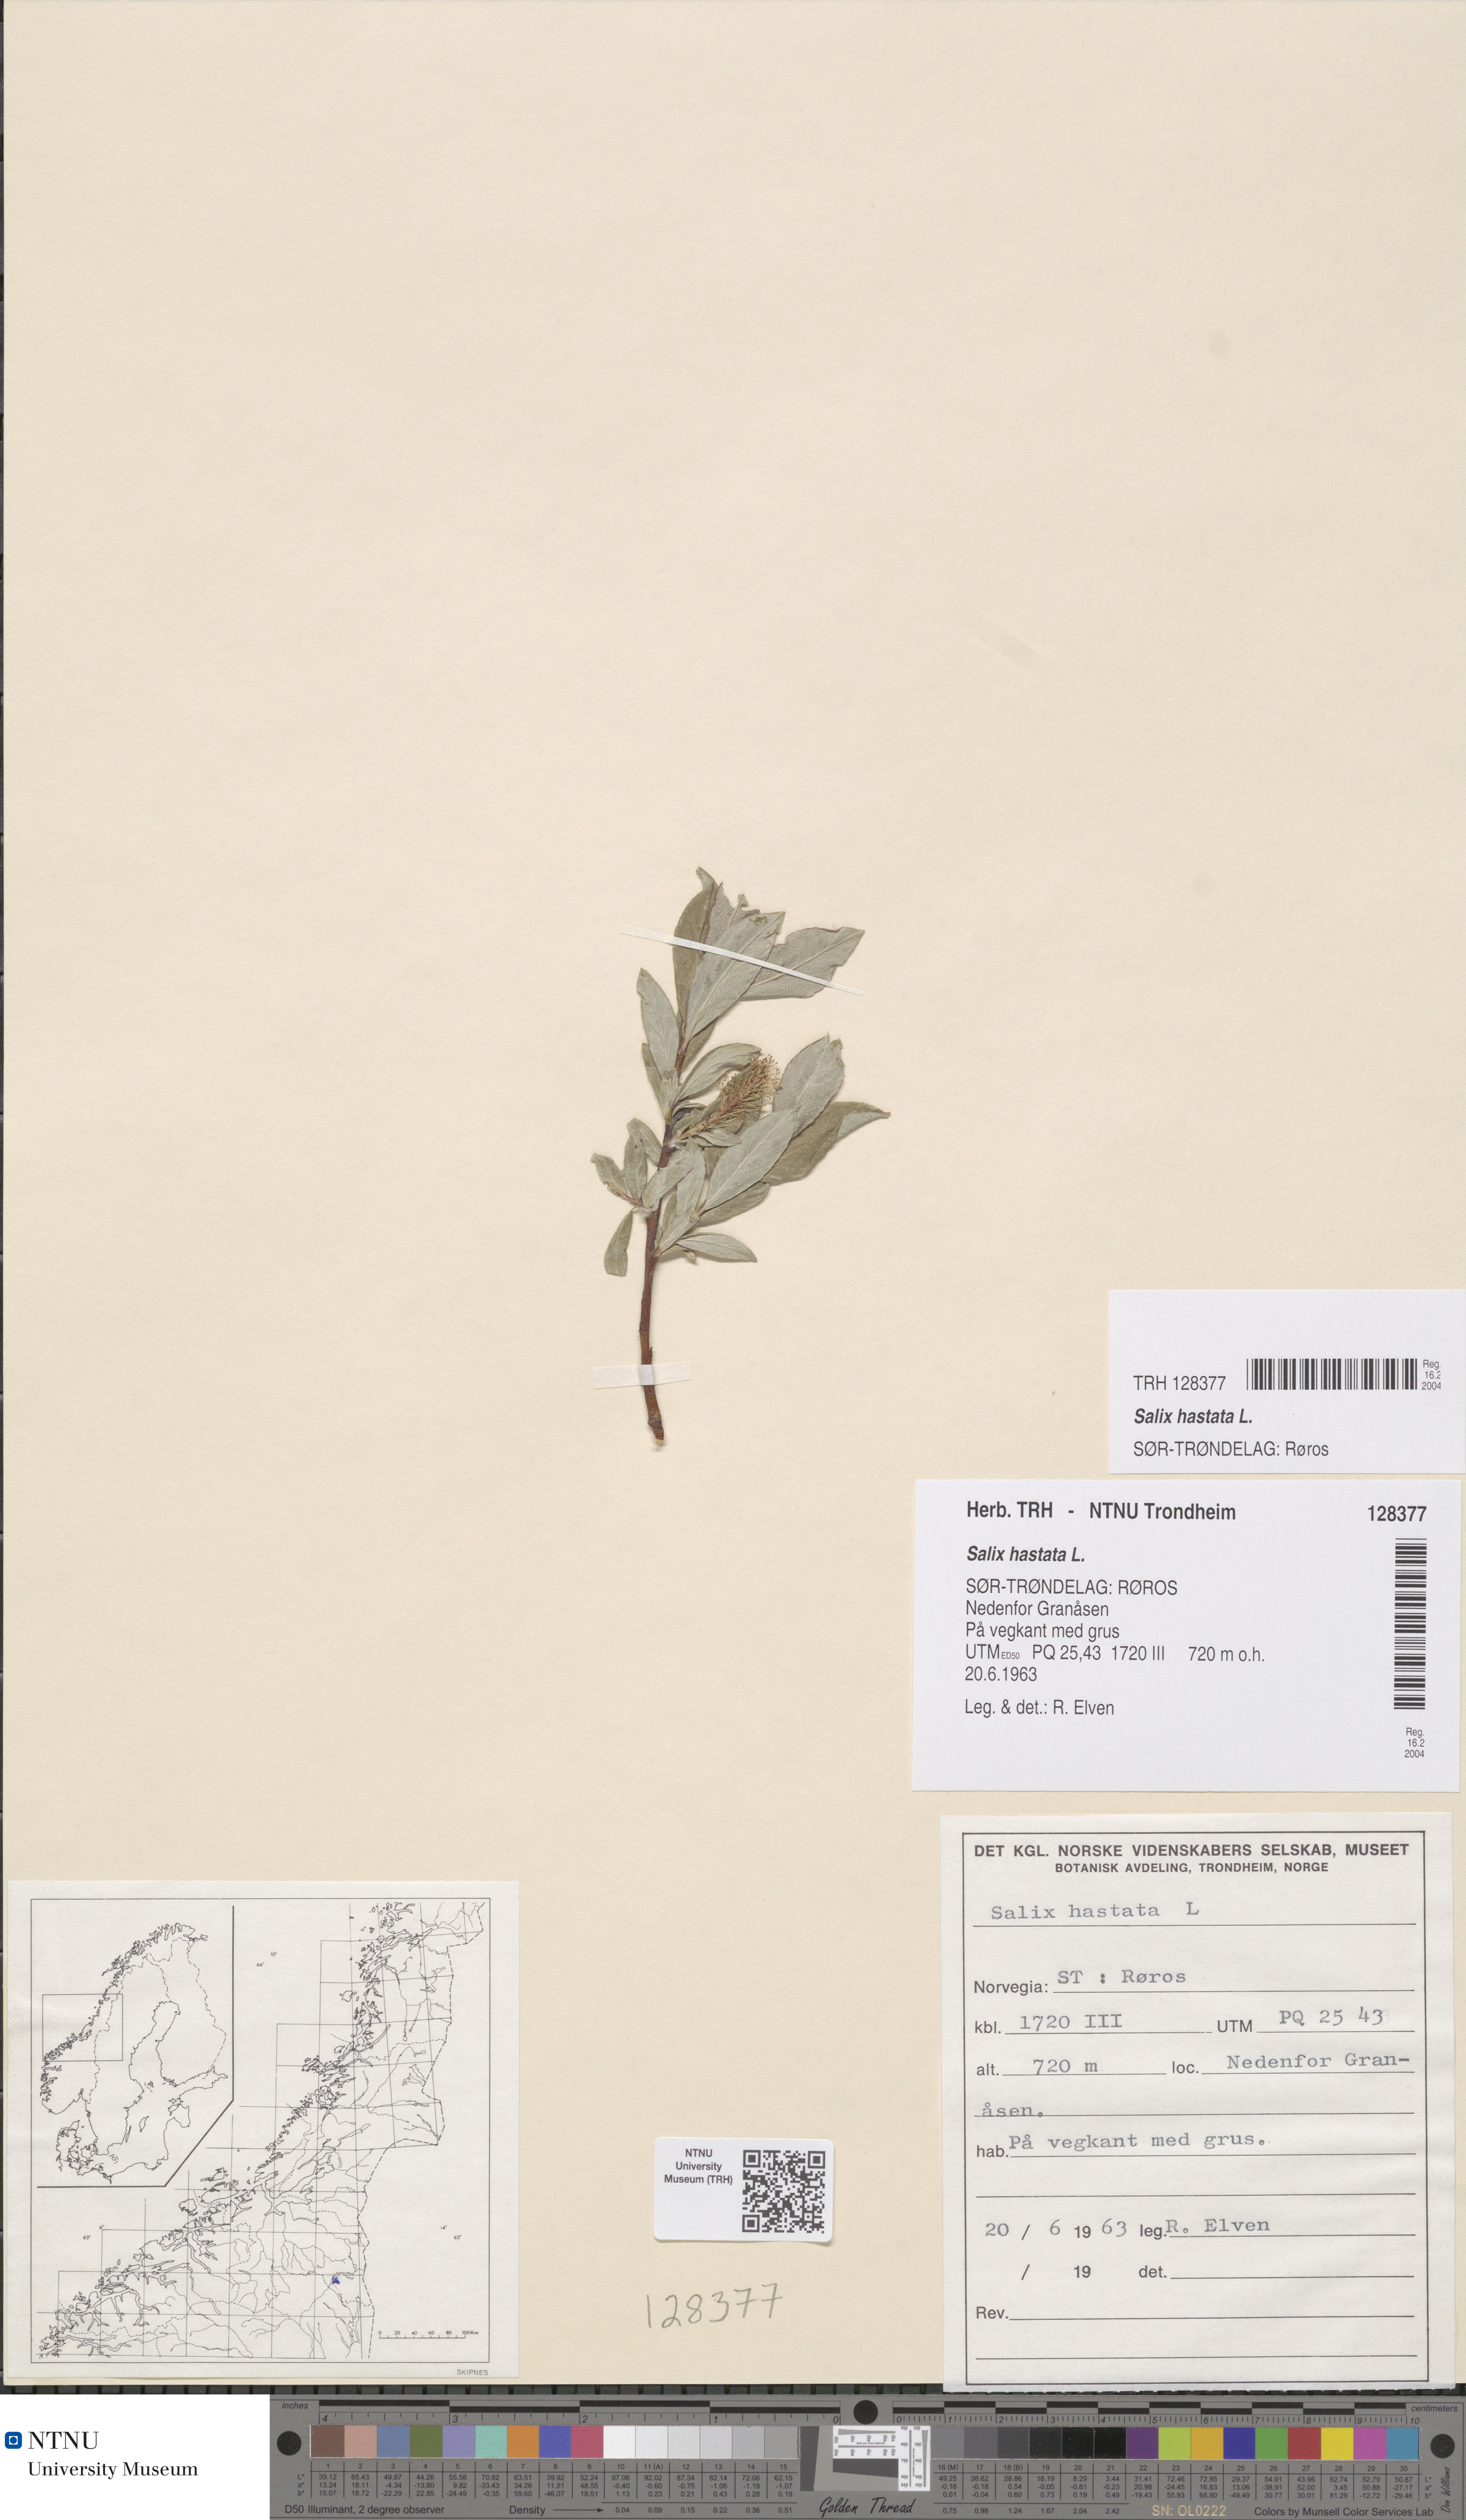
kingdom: Plantae
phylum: Tracheophyta
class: Magnoliopsida
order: Malpighiales
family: Salicaceae
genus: Salix
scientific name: Salix hastata
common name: Halberd willow
